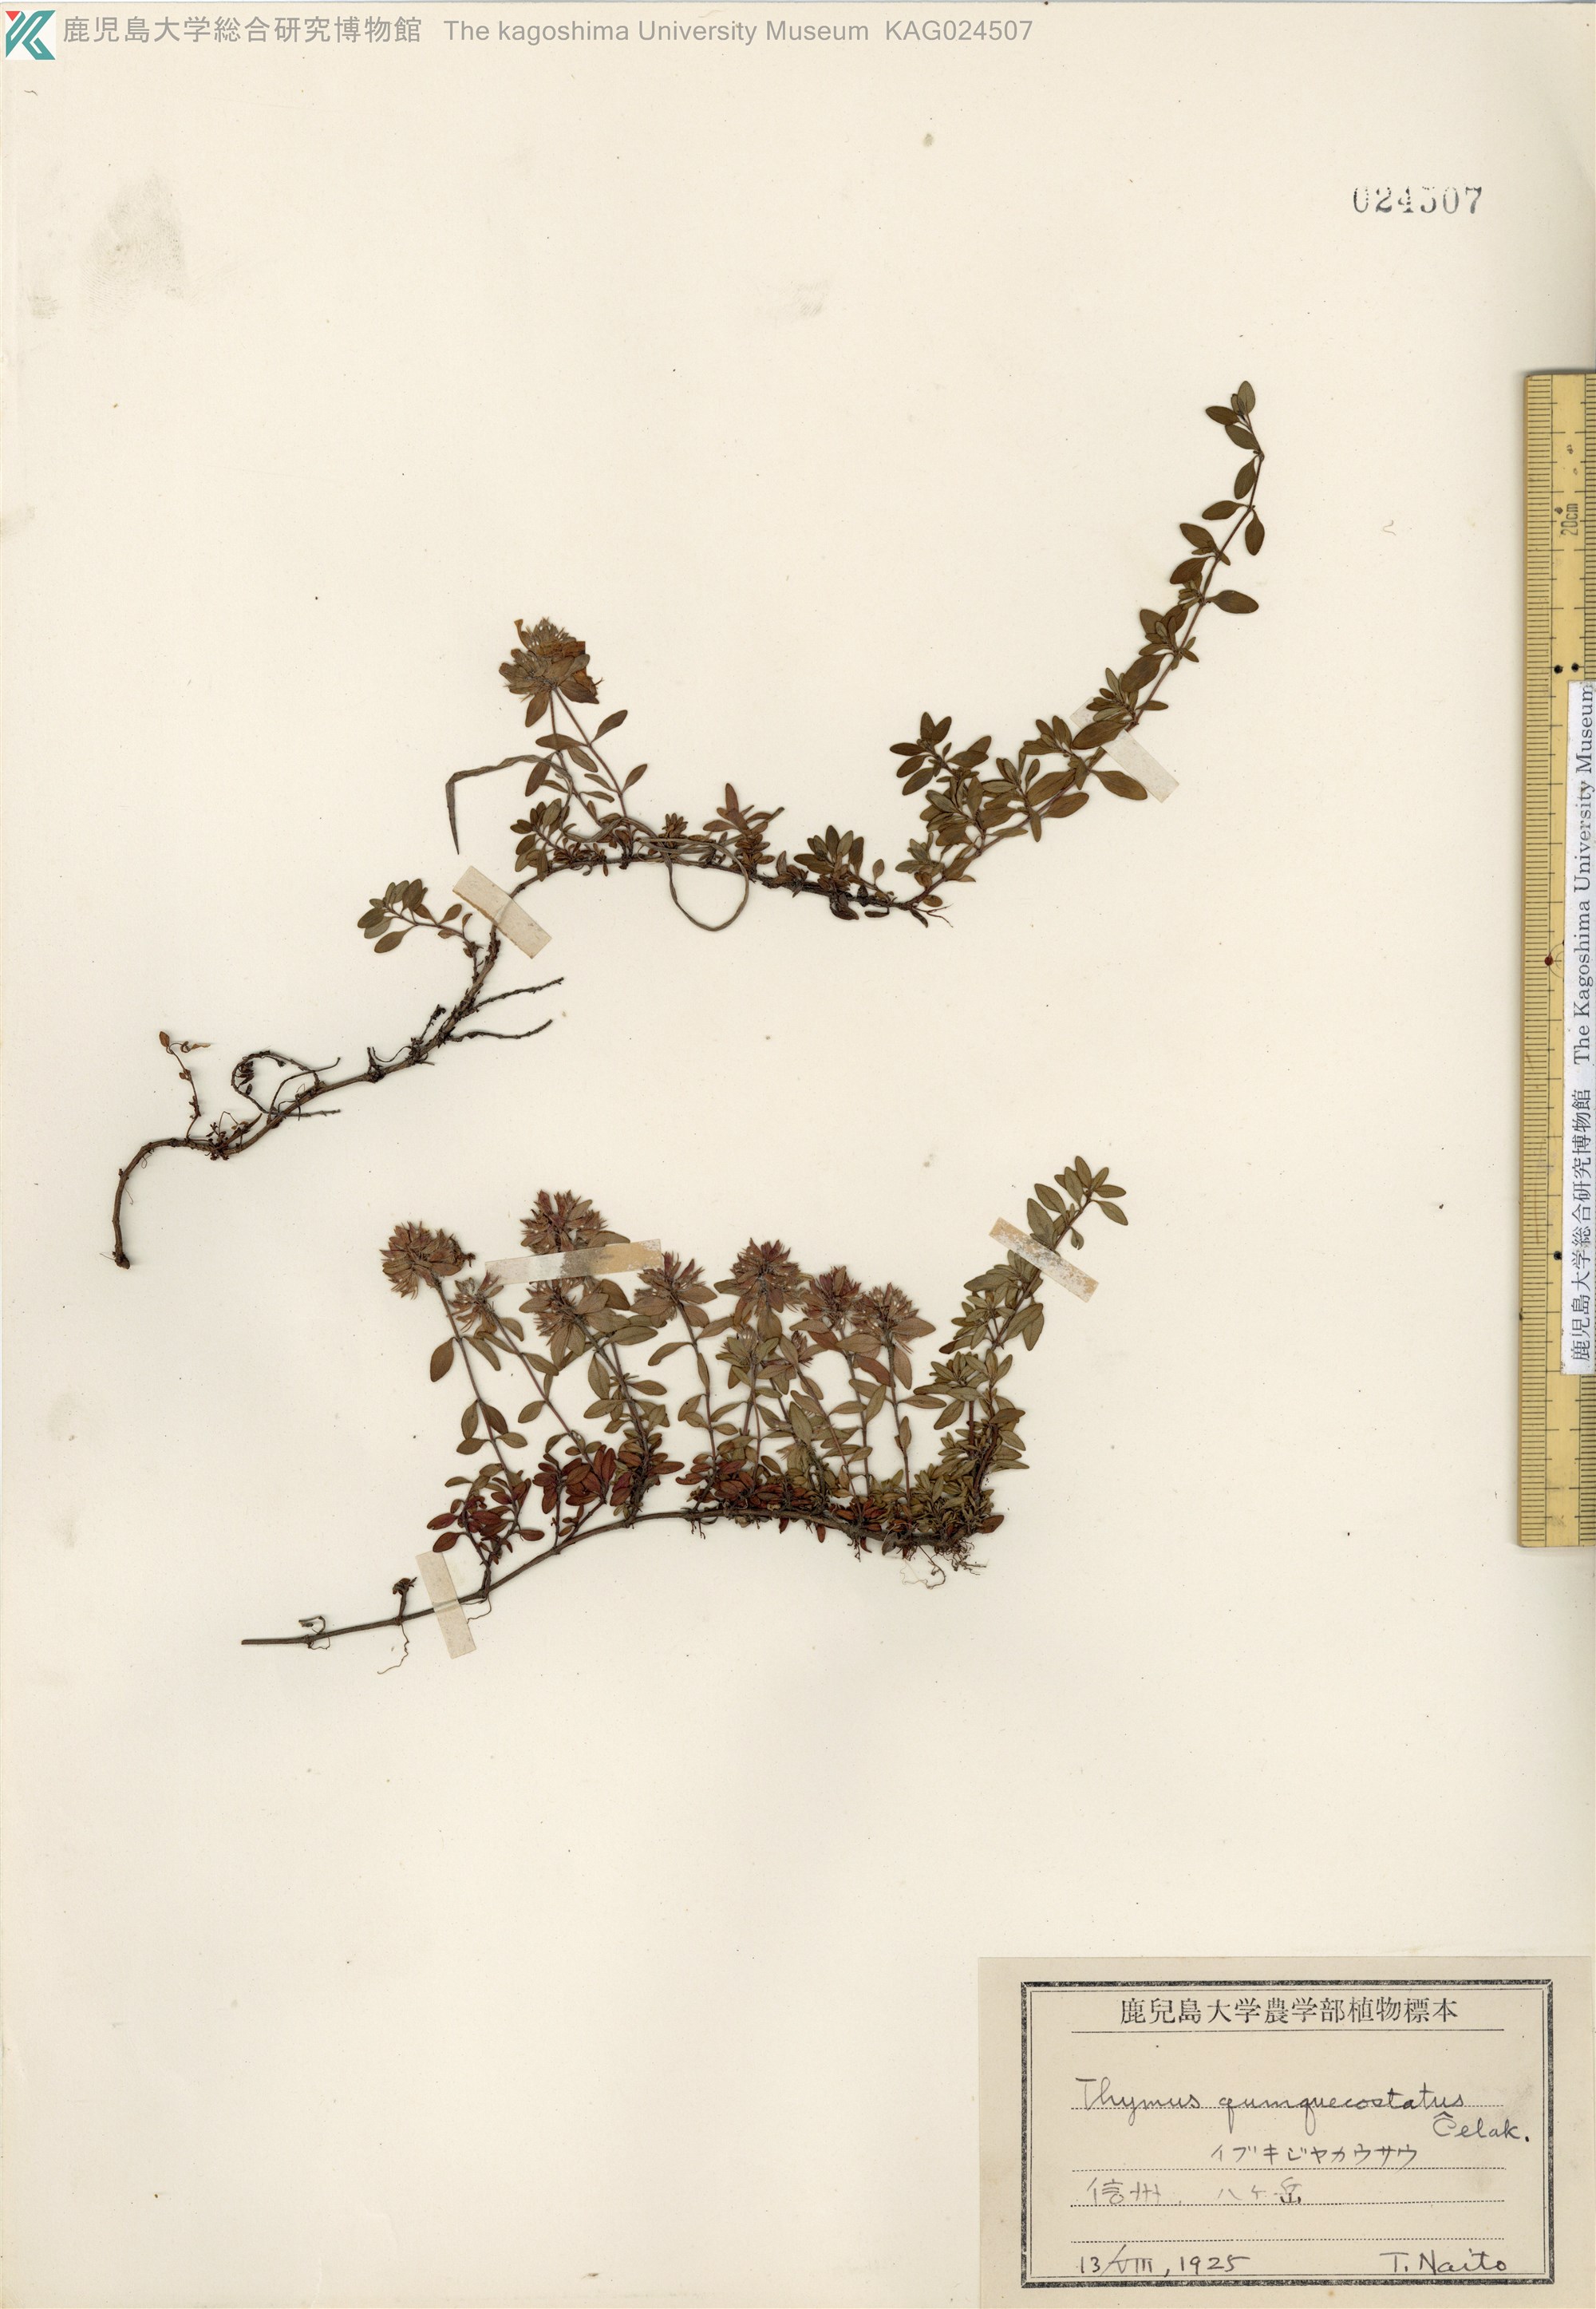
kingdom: Plantae
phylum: Tracheophyta
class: Magnoliopsida
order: Lamiales
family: Lamiaceae
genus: Thymus
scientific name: Thymus quinquecostatus
